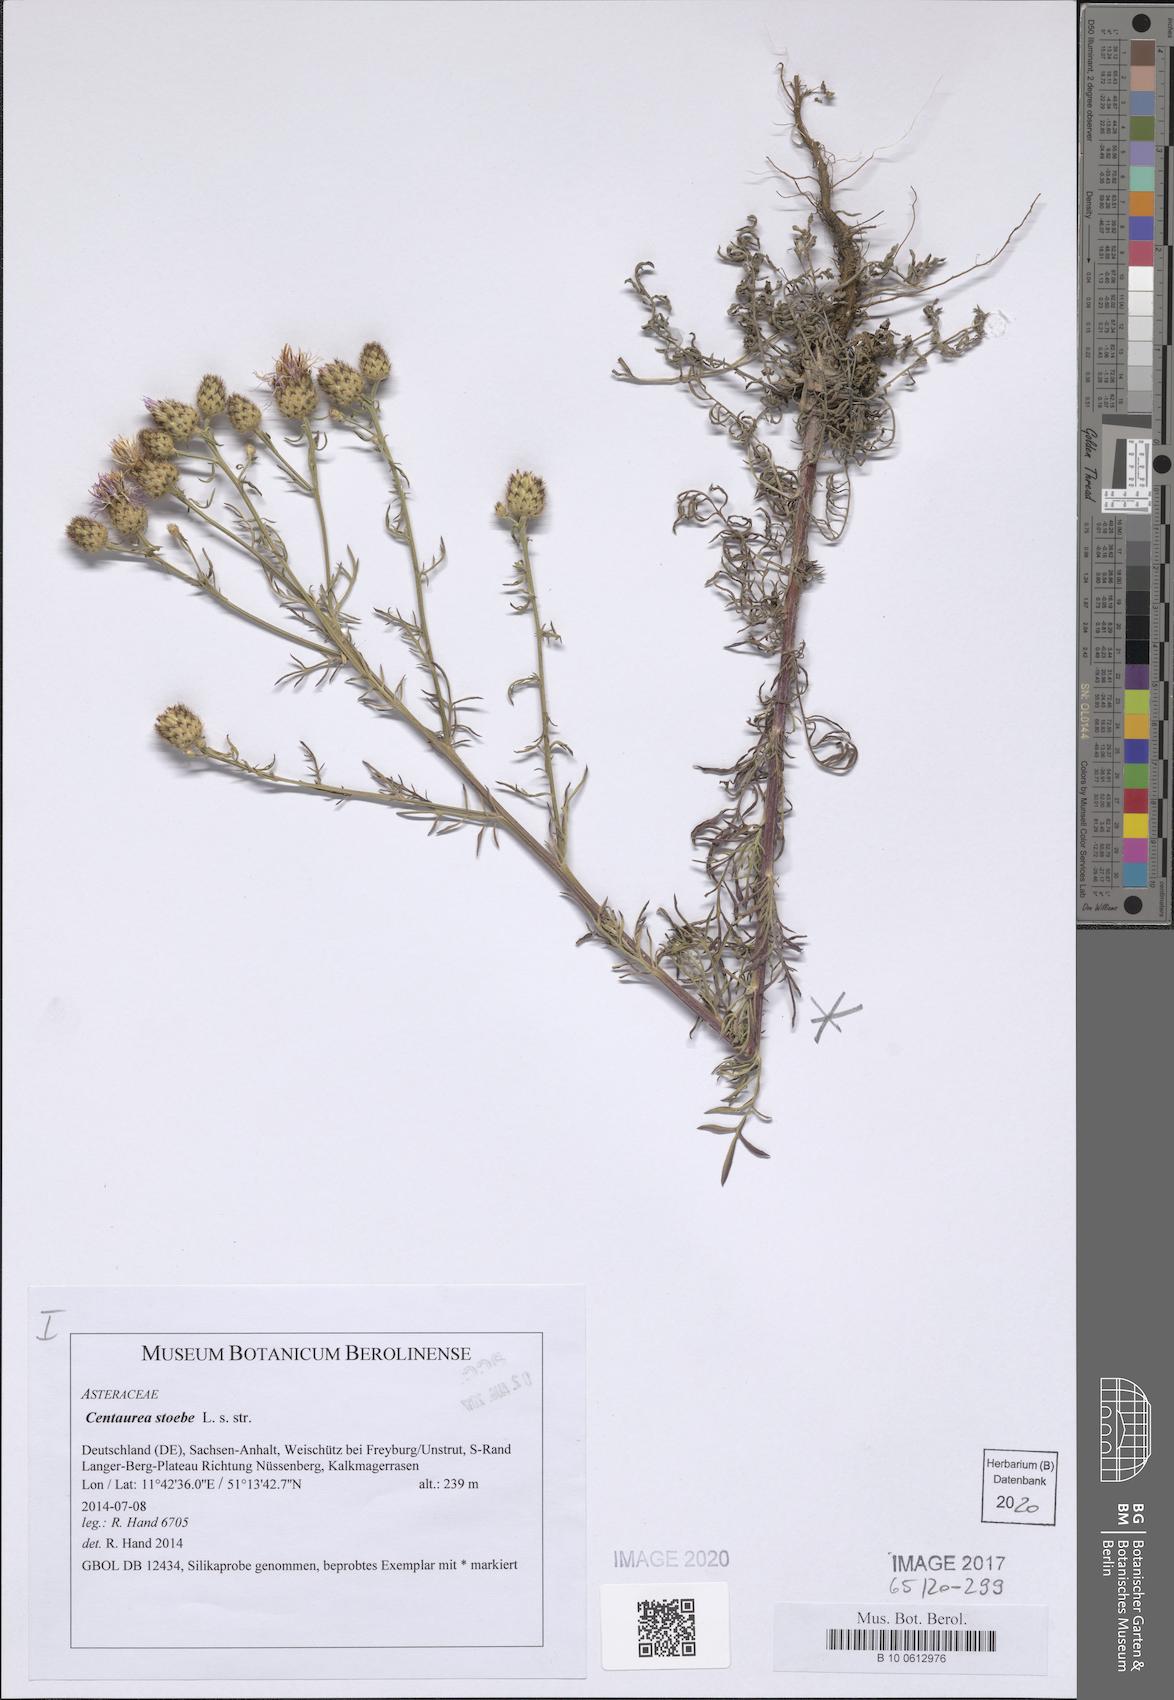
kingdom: Plantae
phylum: Tracheophyta
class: Magnoliopsida
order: Asterales
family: Asteraceae
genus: Centaurea
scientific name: Centaurea stoebe
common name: Spotted knapweed
